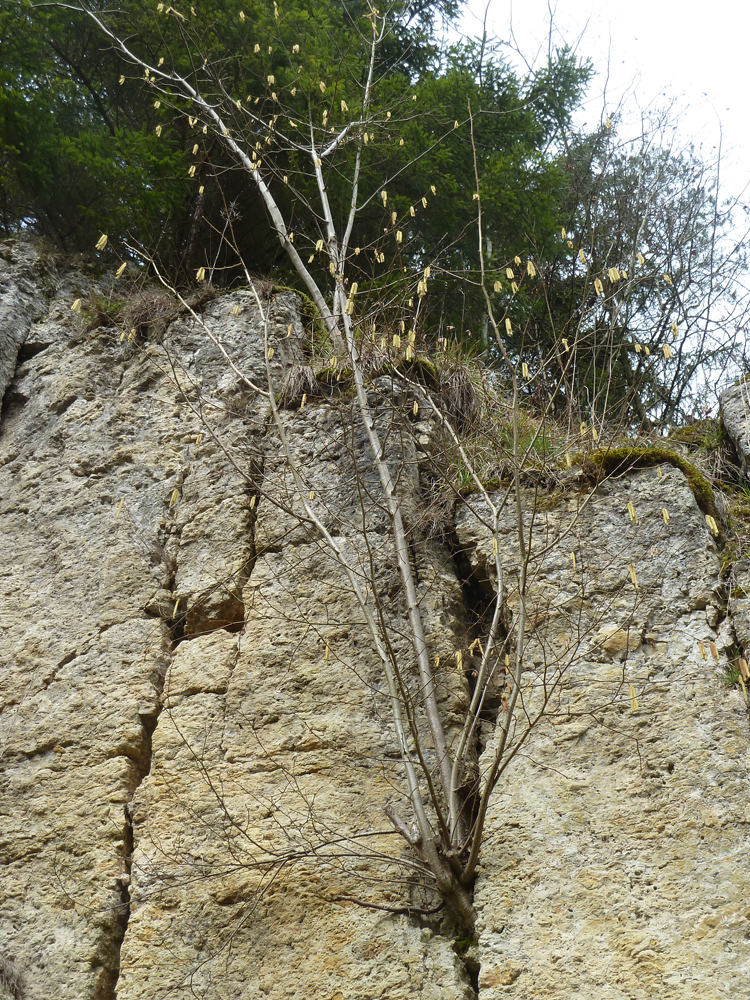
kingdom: Plantae
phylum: Tracheophyta
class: Magnoliopsida
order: Fagales
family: Betulaceae
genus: Corylus
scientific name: Corylus avellana
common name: European hazel
